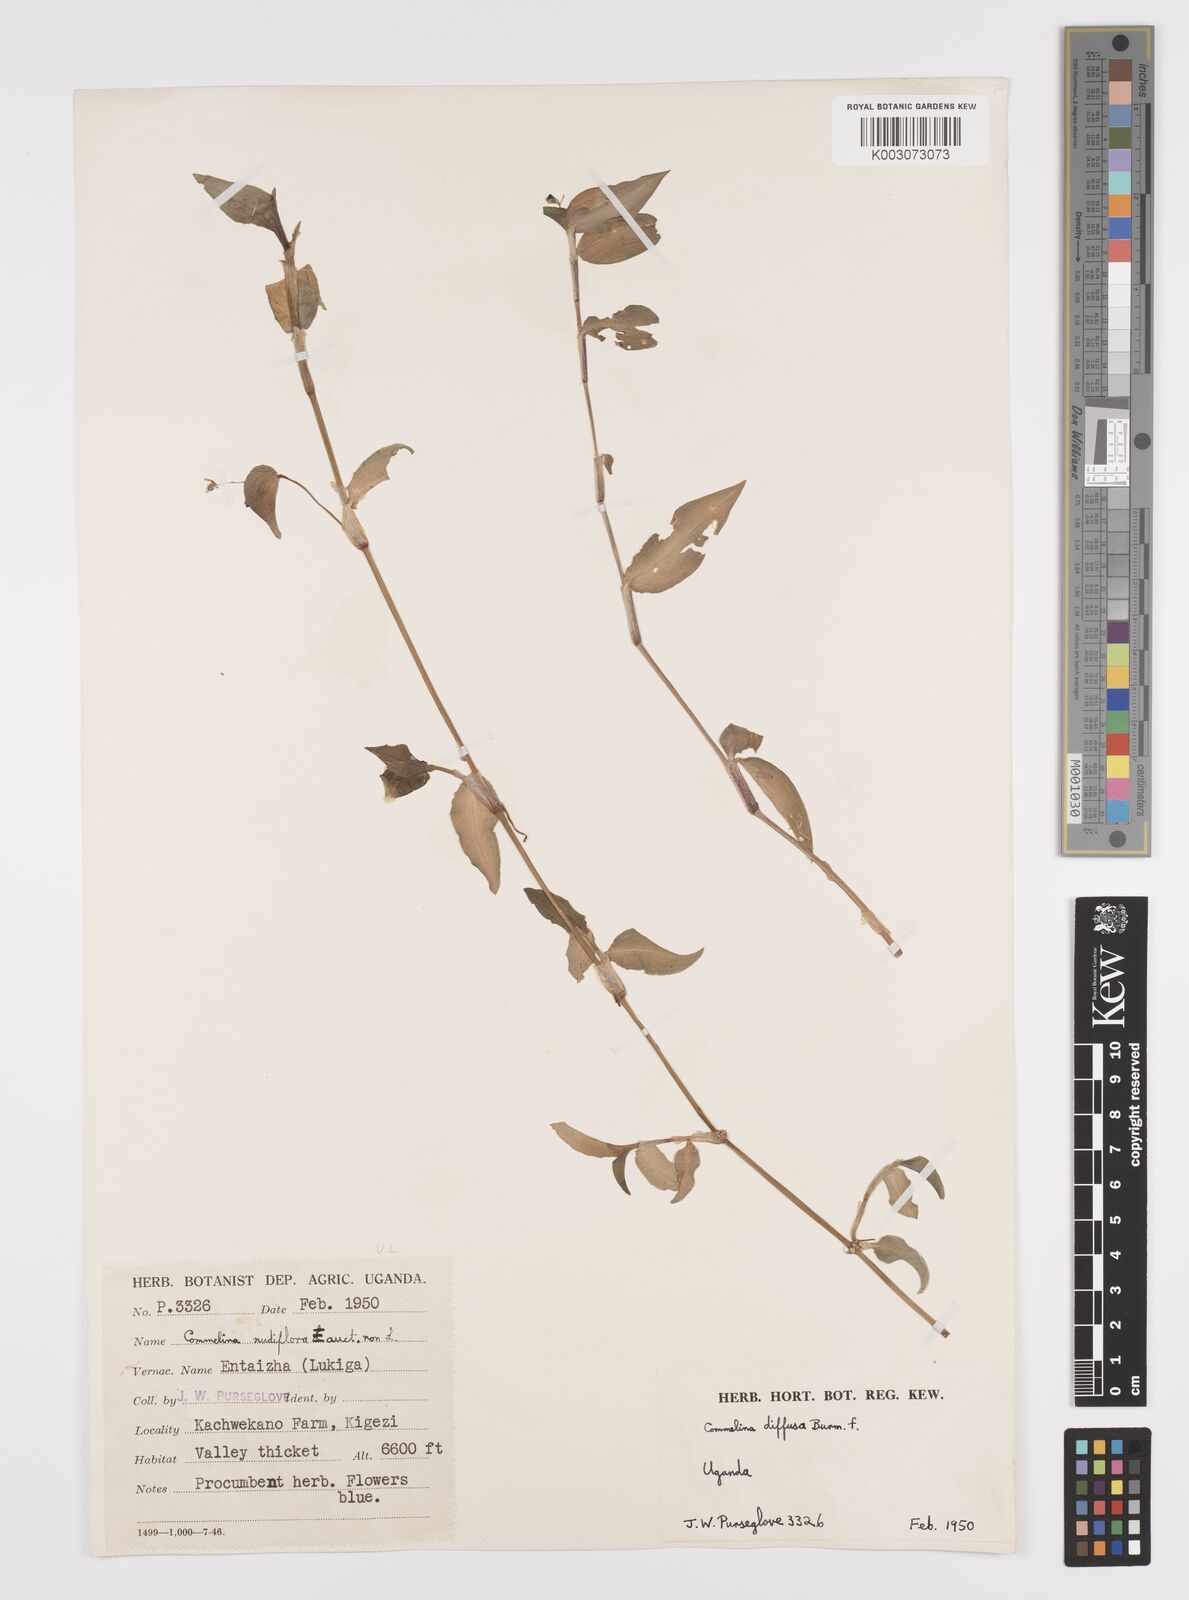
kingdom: Plantae
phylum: Tracheophyta
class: Liliopsida
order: Commelinales
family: Commelinaceae
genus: Commelina
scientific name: Commelina diffusa
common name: Climbing dayflower
